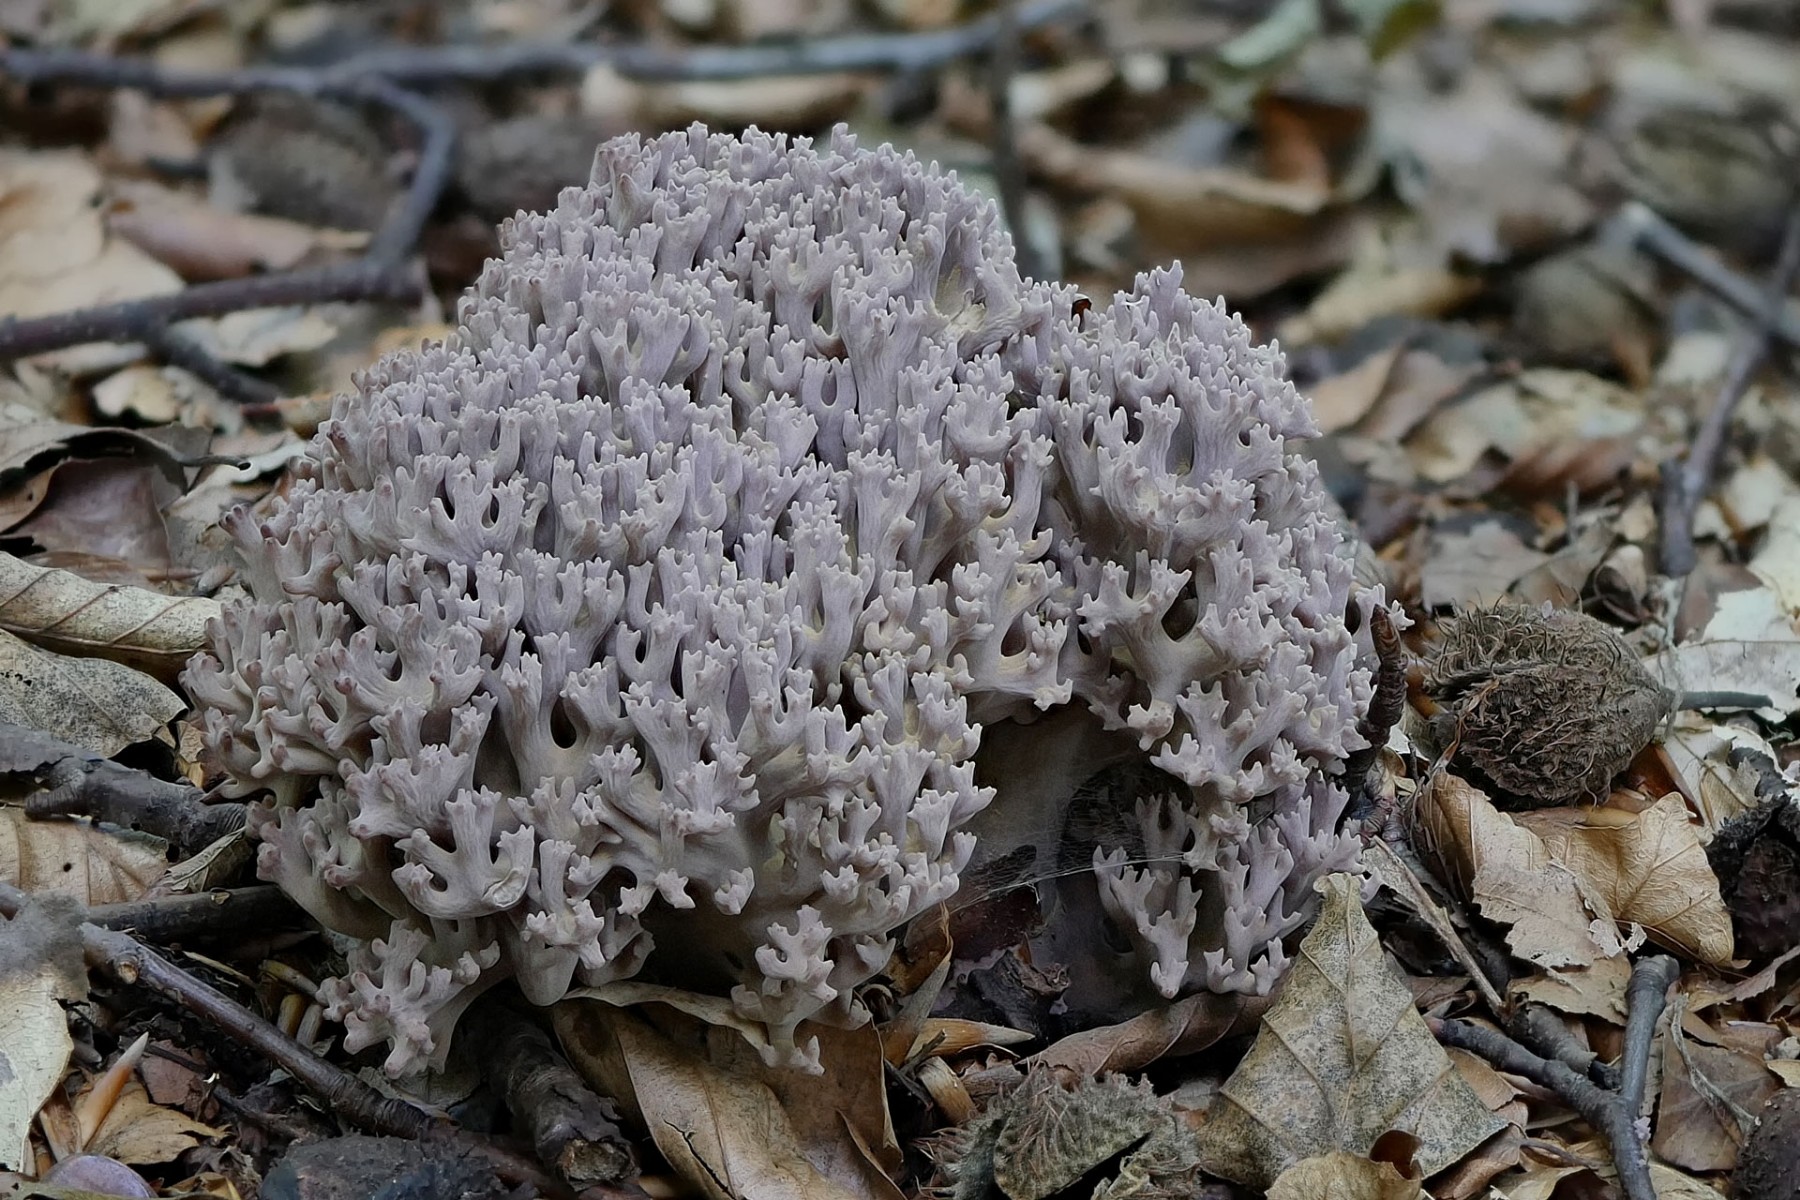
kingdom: Fungi
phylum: Basidiomycota
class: Agaricomycetes
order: Gomphales
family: Gomphaceae
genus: Ramaria
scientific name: Ramaria fumigata
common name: violet koralsvamp
